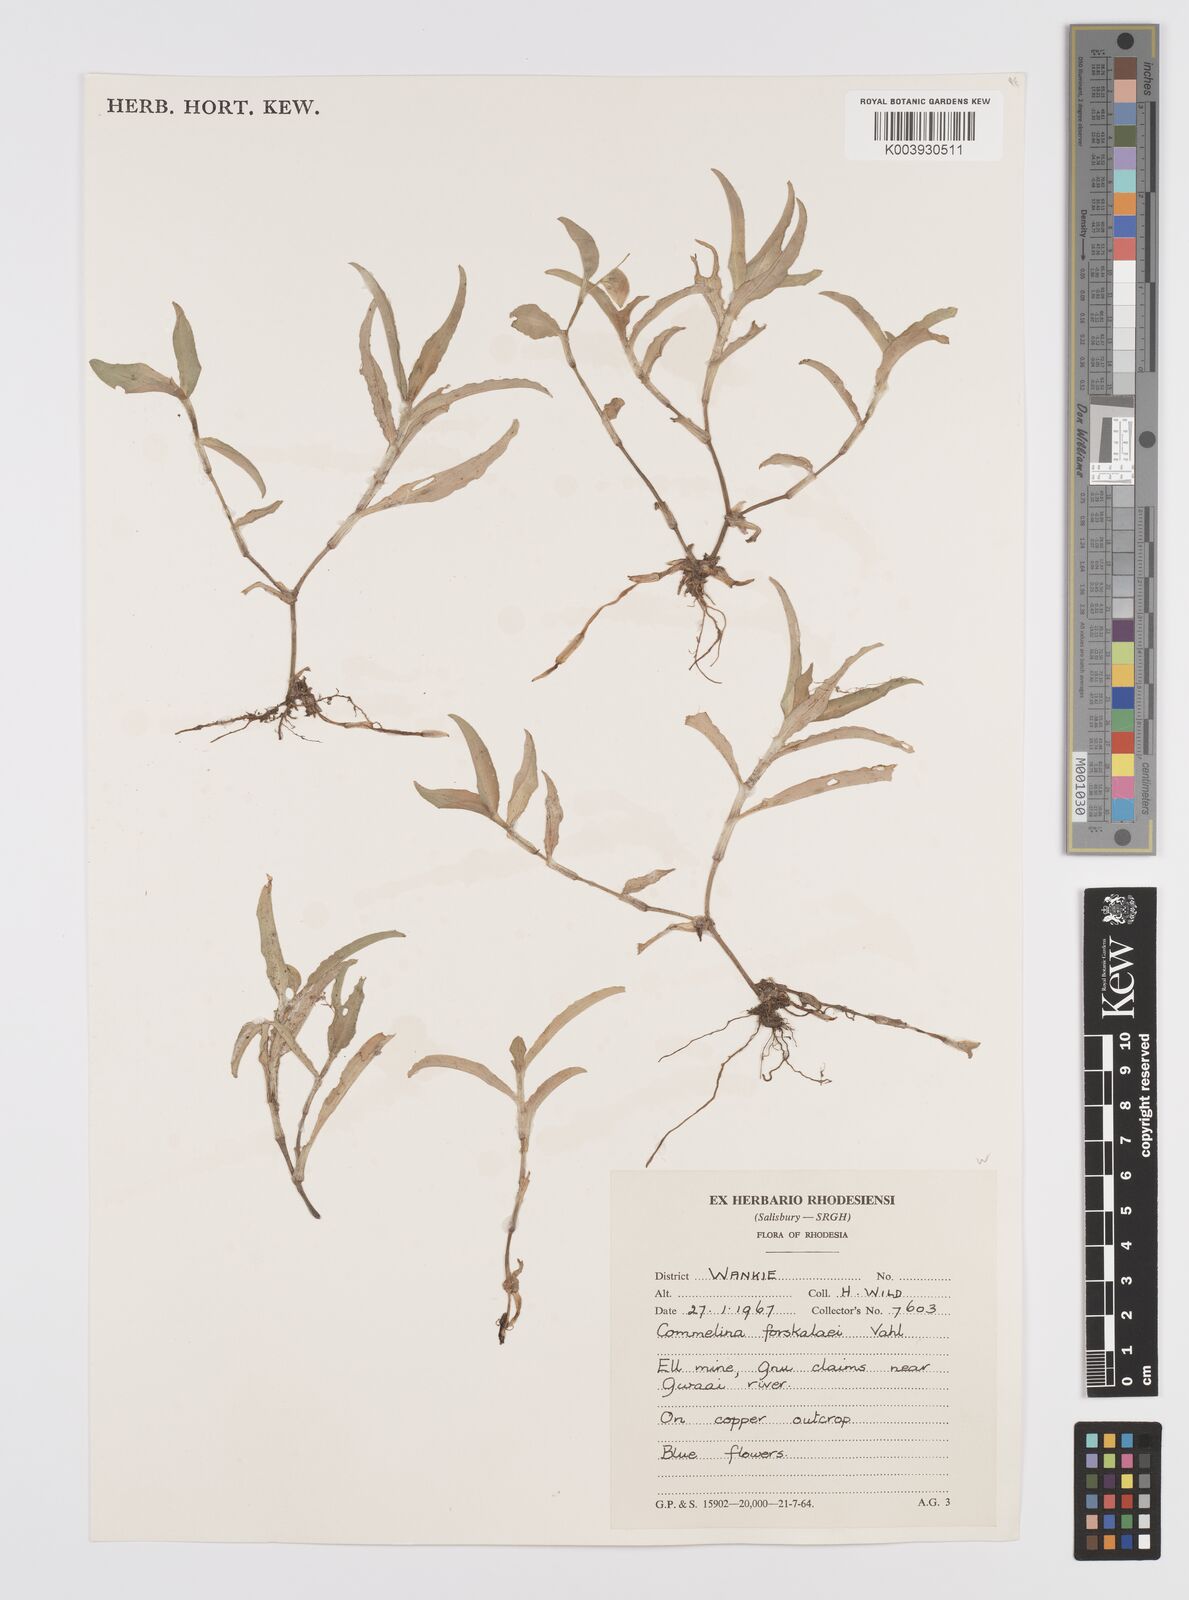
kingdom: Plantae
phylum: Tracheophyta
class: Liliopsida
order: Commelinales
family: Commelinaceae
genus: Commelina
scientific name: Commelina forskaolii
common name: Rat's ear
